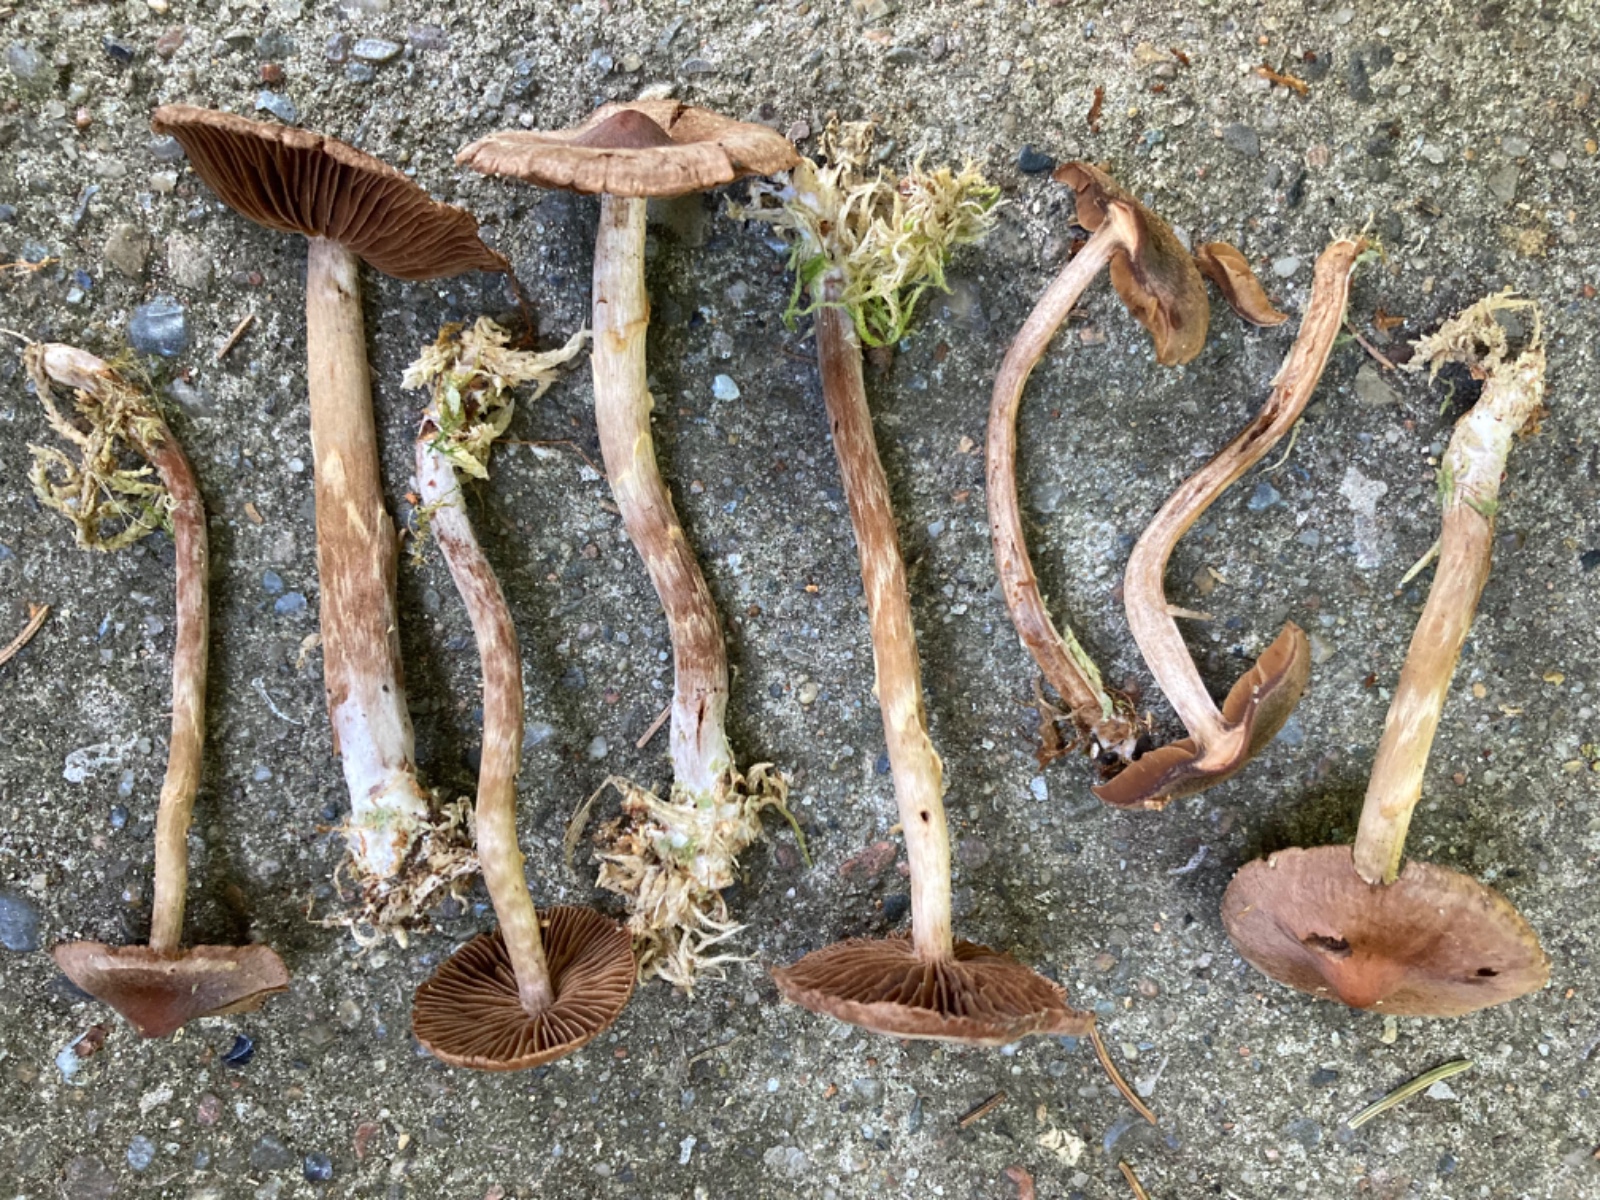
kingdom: Fungi
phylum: Basidiomycota
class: Agaricomycetes
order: Agaricales
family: Cortinariaceae
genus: Cortinarius
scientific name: Cortinarius umbrinolens
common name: mørk slørhat
